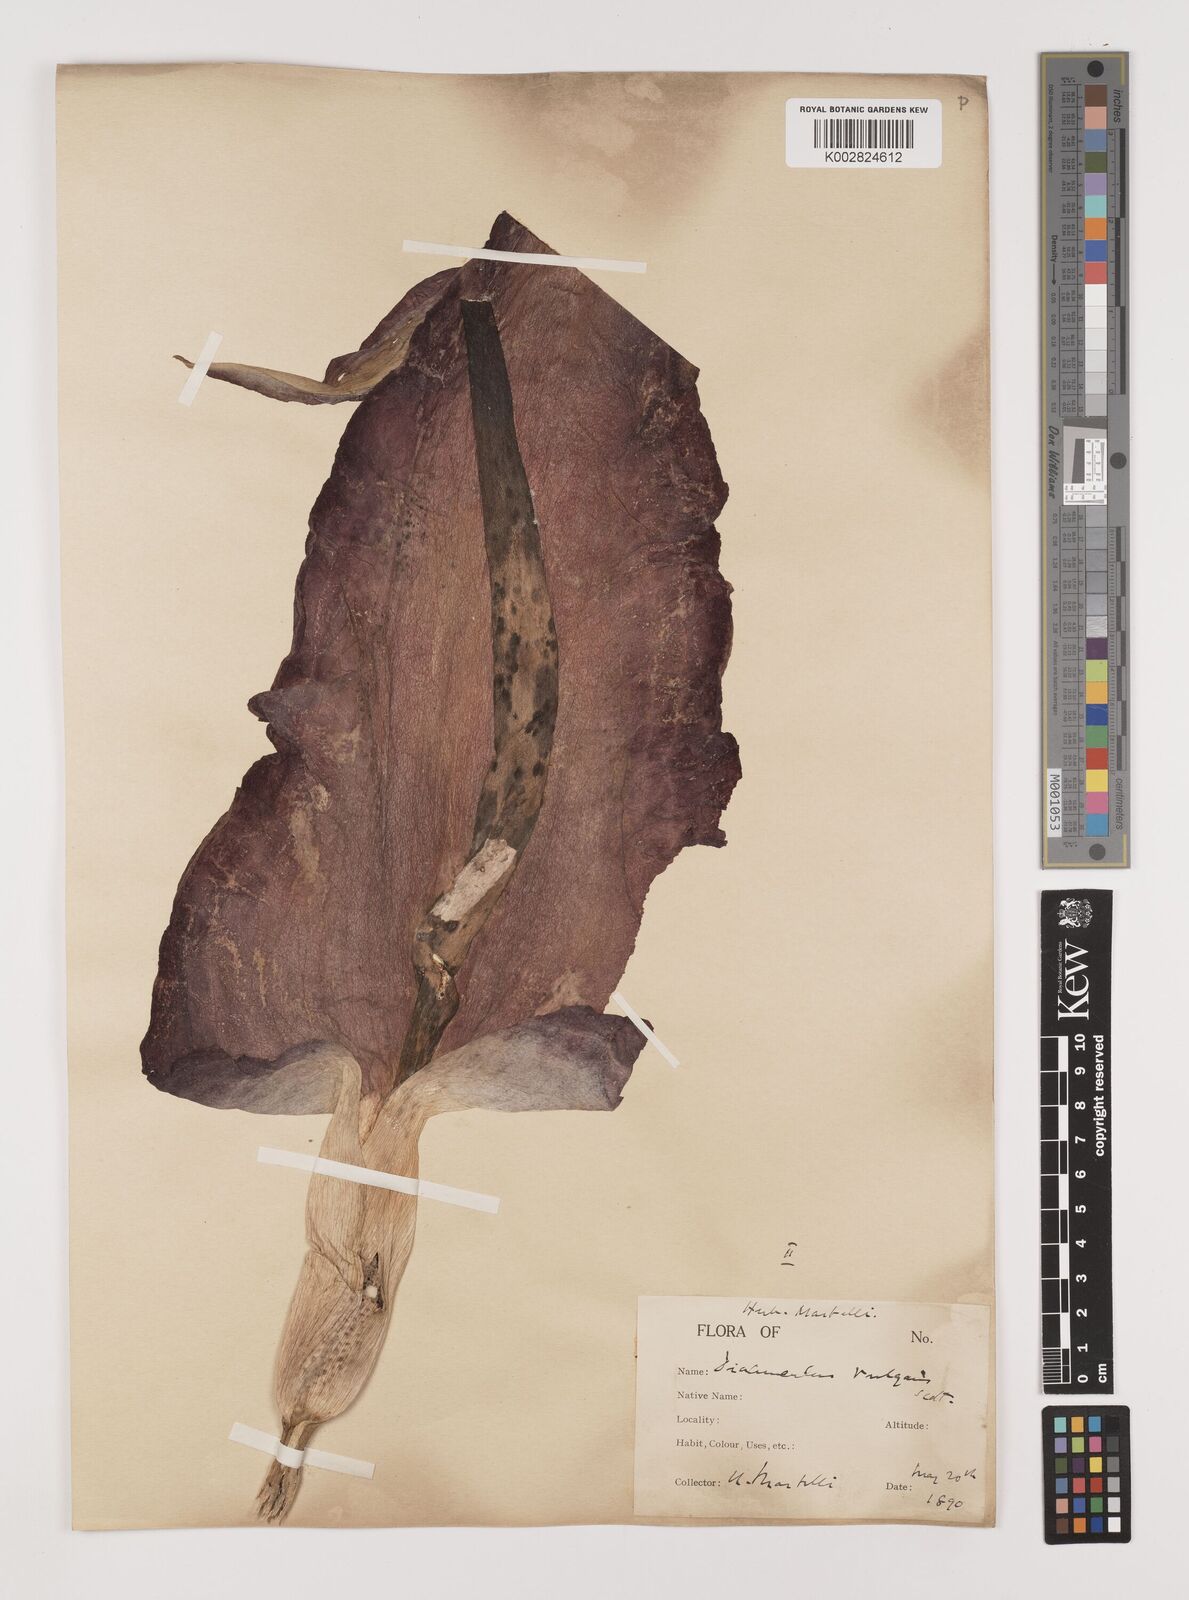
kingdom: Plantae
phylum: Tracheophyta
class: Liliopsida
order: Alismatales
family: Araceae
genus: Dracunculus
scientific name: Dracunculus vulgaris
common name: Dragon arum
